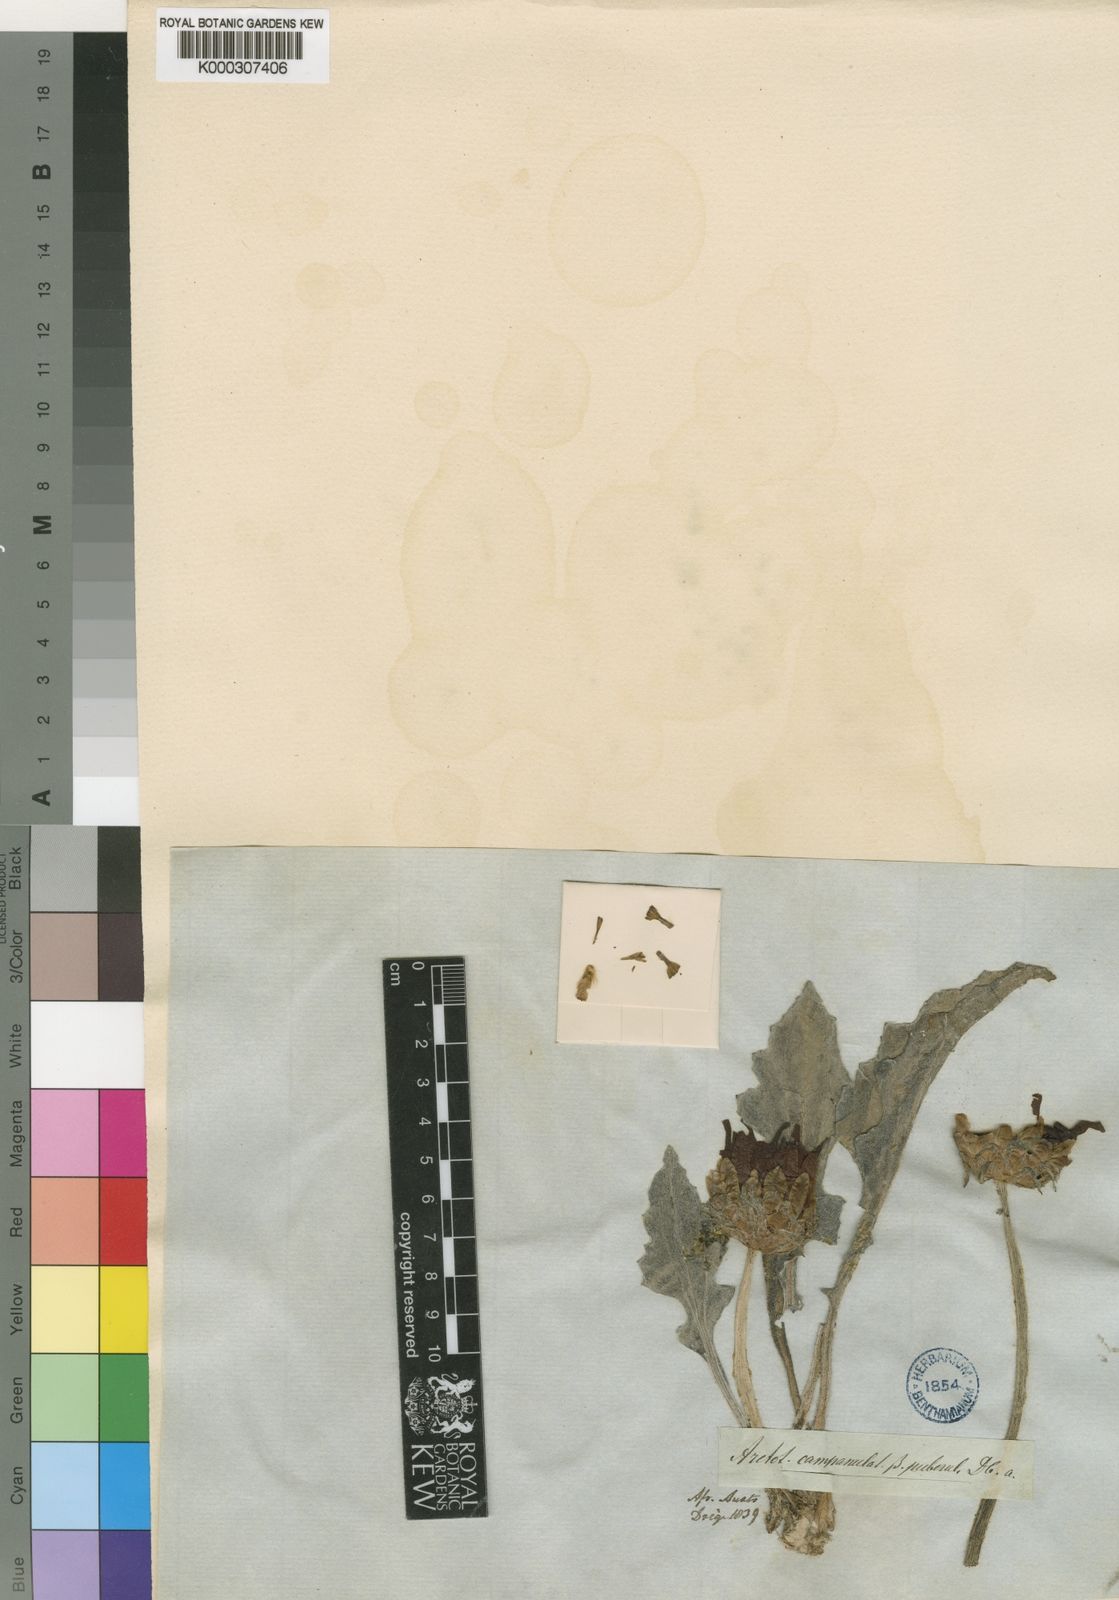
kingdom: Plantae
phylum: Tracheophyta
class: Magnoliopsida
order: Asterales
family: Asteraceae
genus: Arctotis
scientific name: Arctotis campanulata
